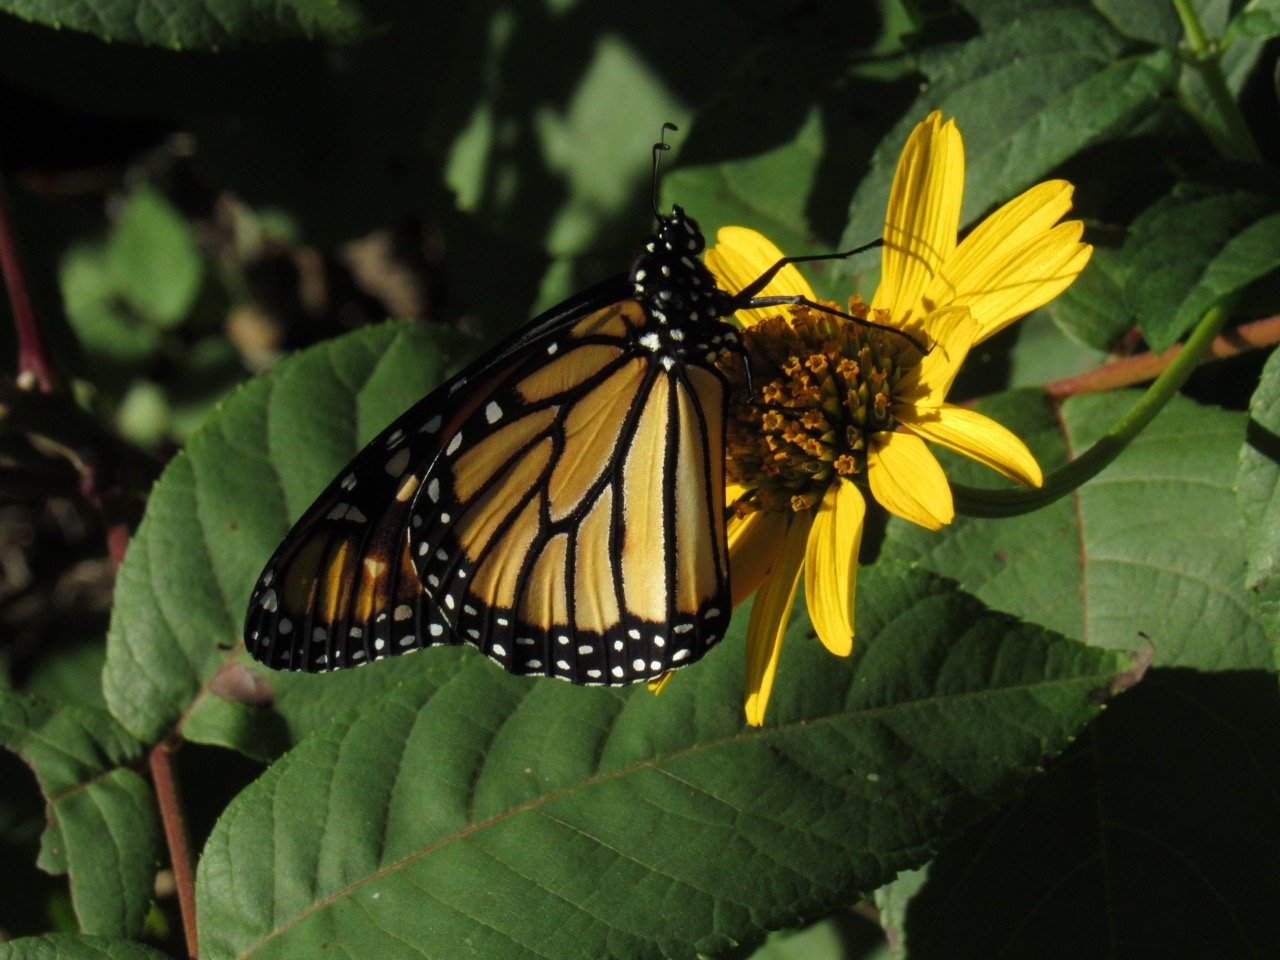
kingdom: Animalia
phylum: Arthropoda
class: Insecta
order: Lepidoptera
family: Nymphalidae
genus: Danaus
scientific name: Danaus plexippus
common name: Monarch
